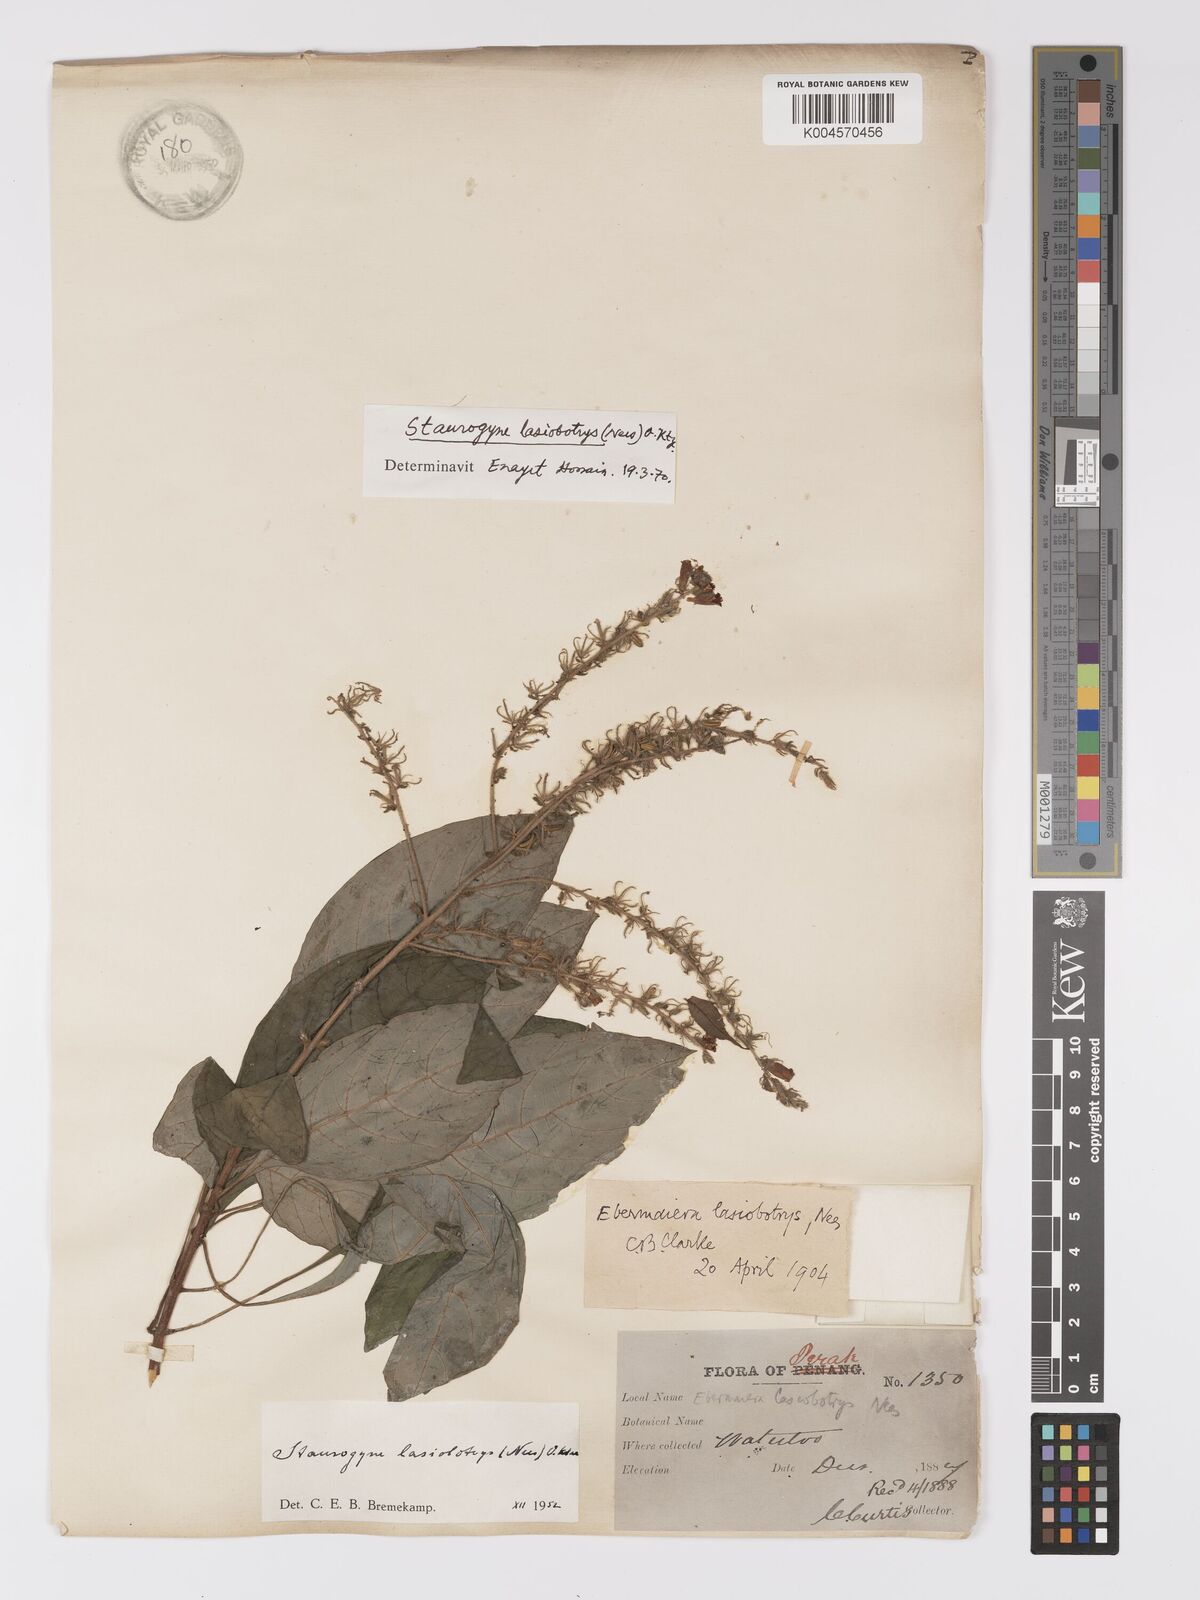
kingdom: Plantae
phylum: Tracheophyta
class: Magnoliopsida
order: Lamiales
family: Acanthaceae
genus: Staurogyne
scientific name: Staurogyne lasiobotrys
